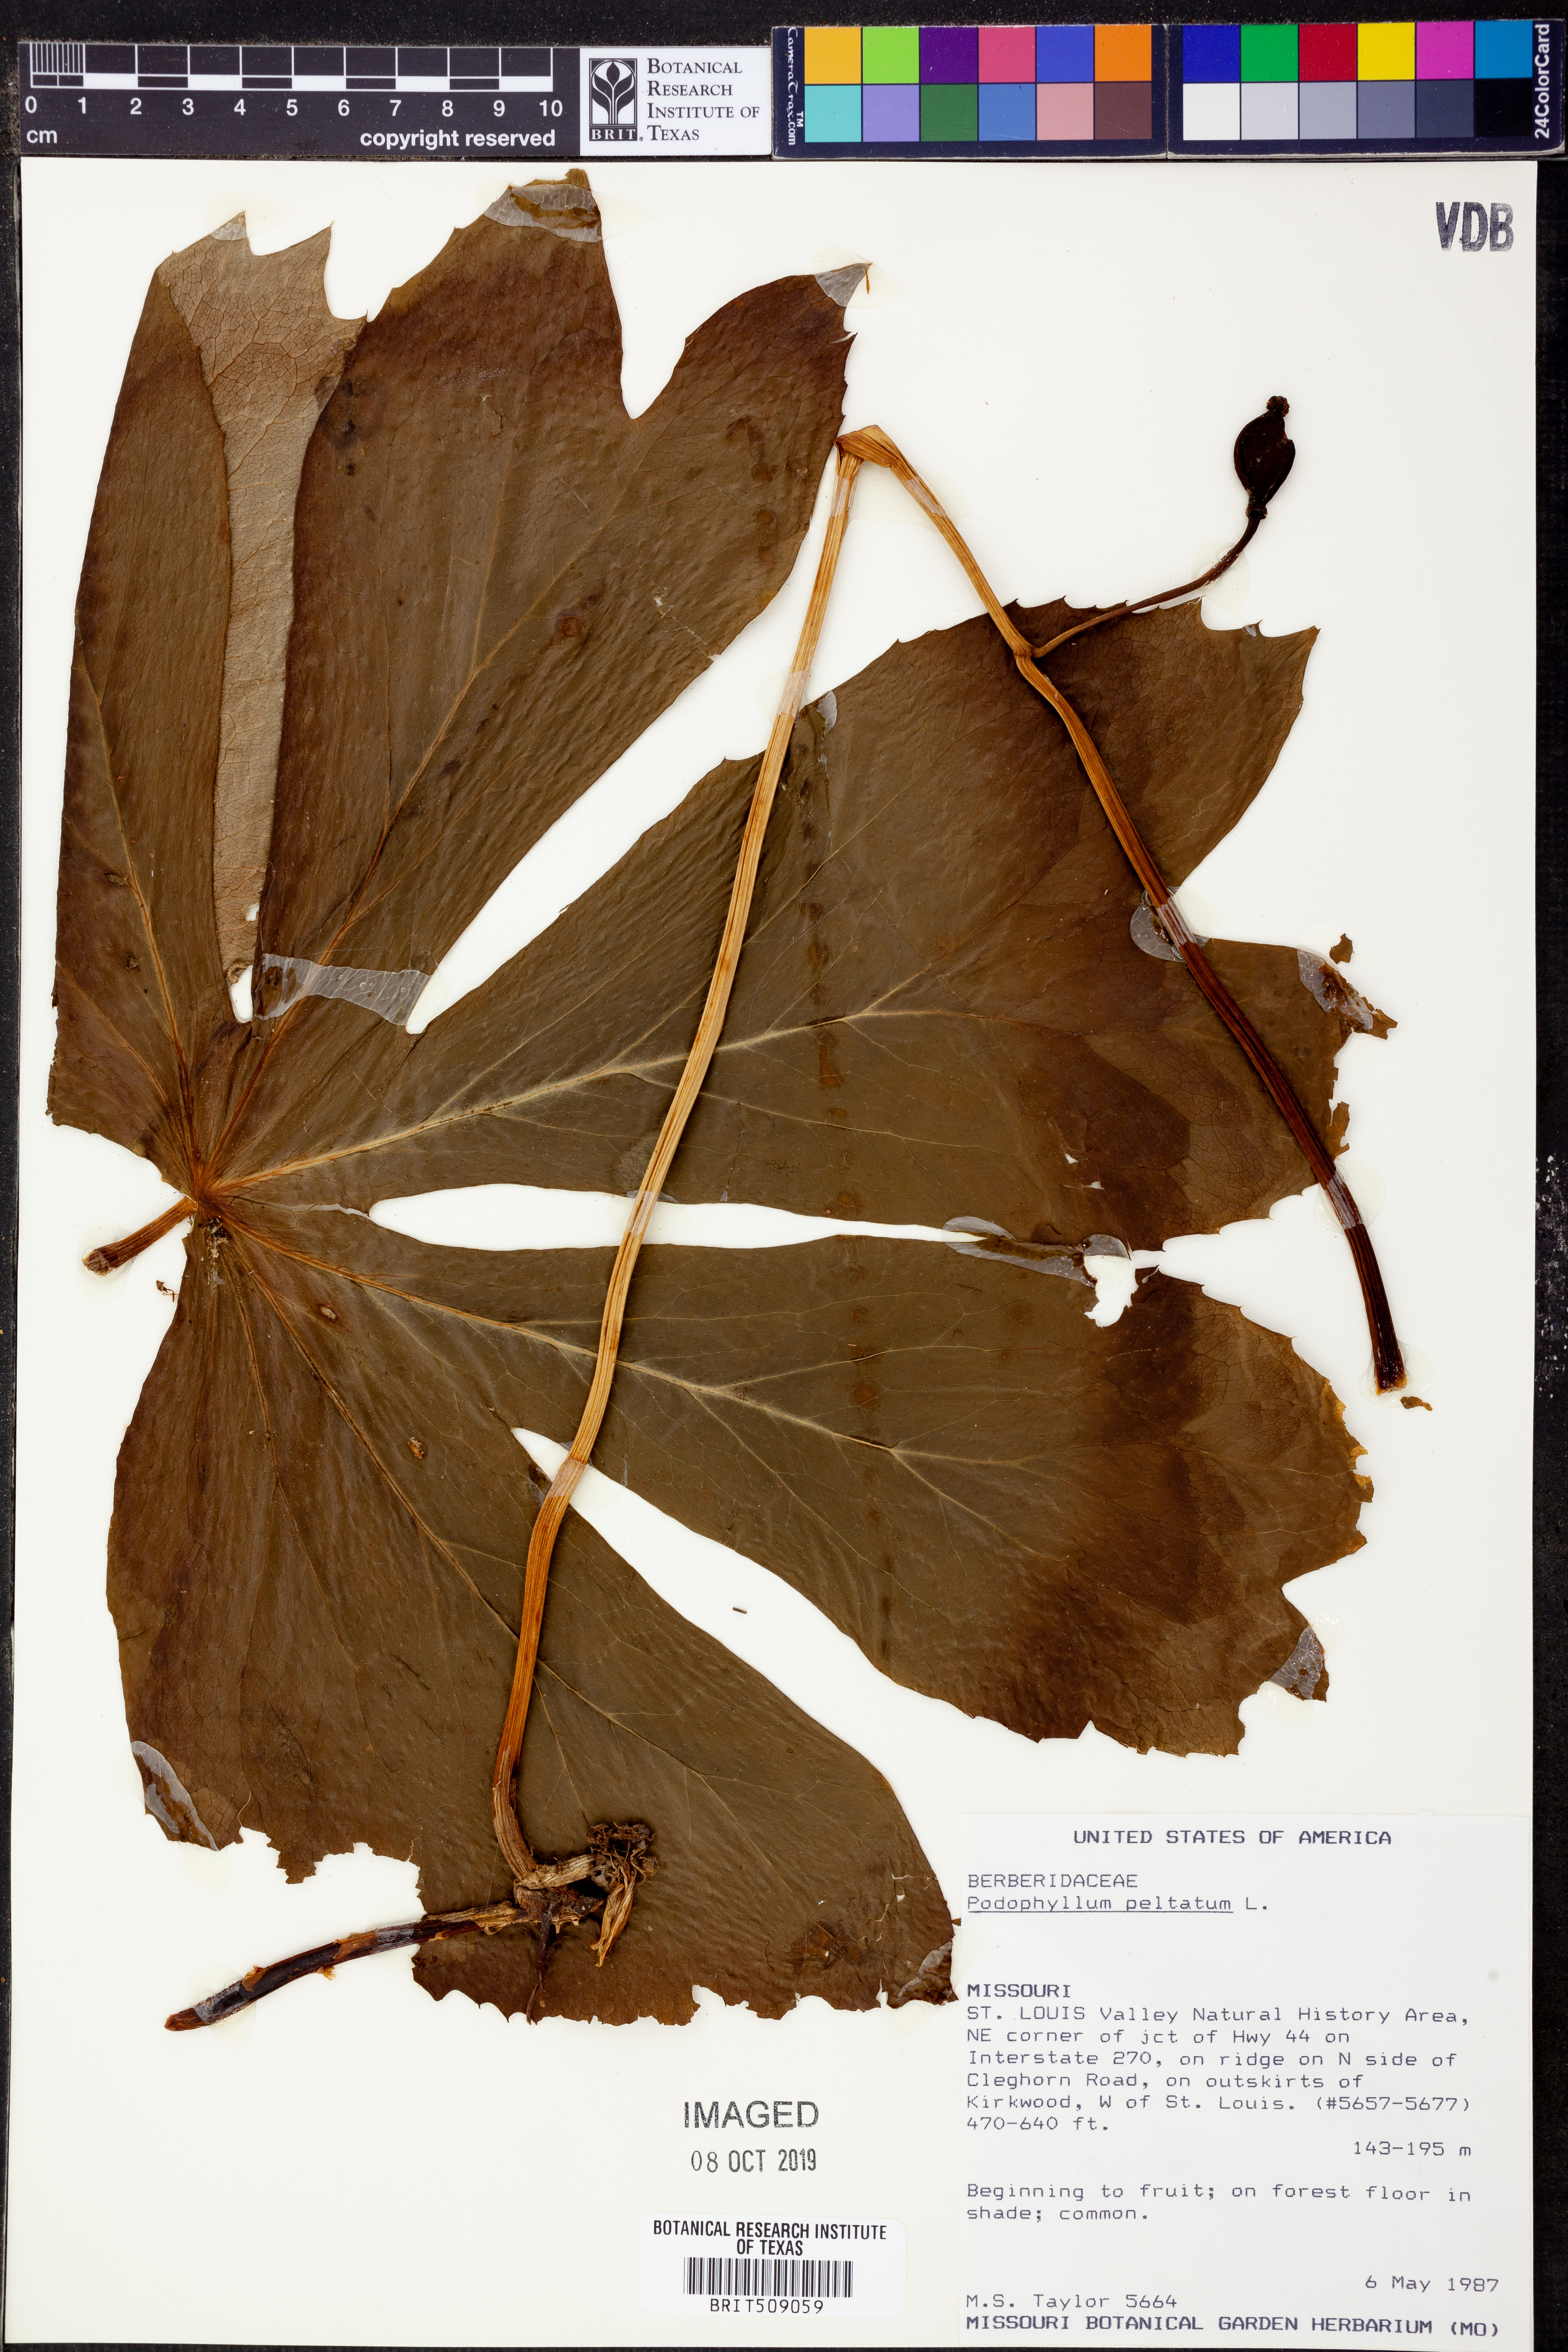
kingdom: Plantae
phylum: Tracheophyta
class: Magnoliopsida
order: Ranunculales
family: Berberidaceae
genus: Podophyllum
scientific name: Podophyllum peltatum
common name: Wild mandrake
